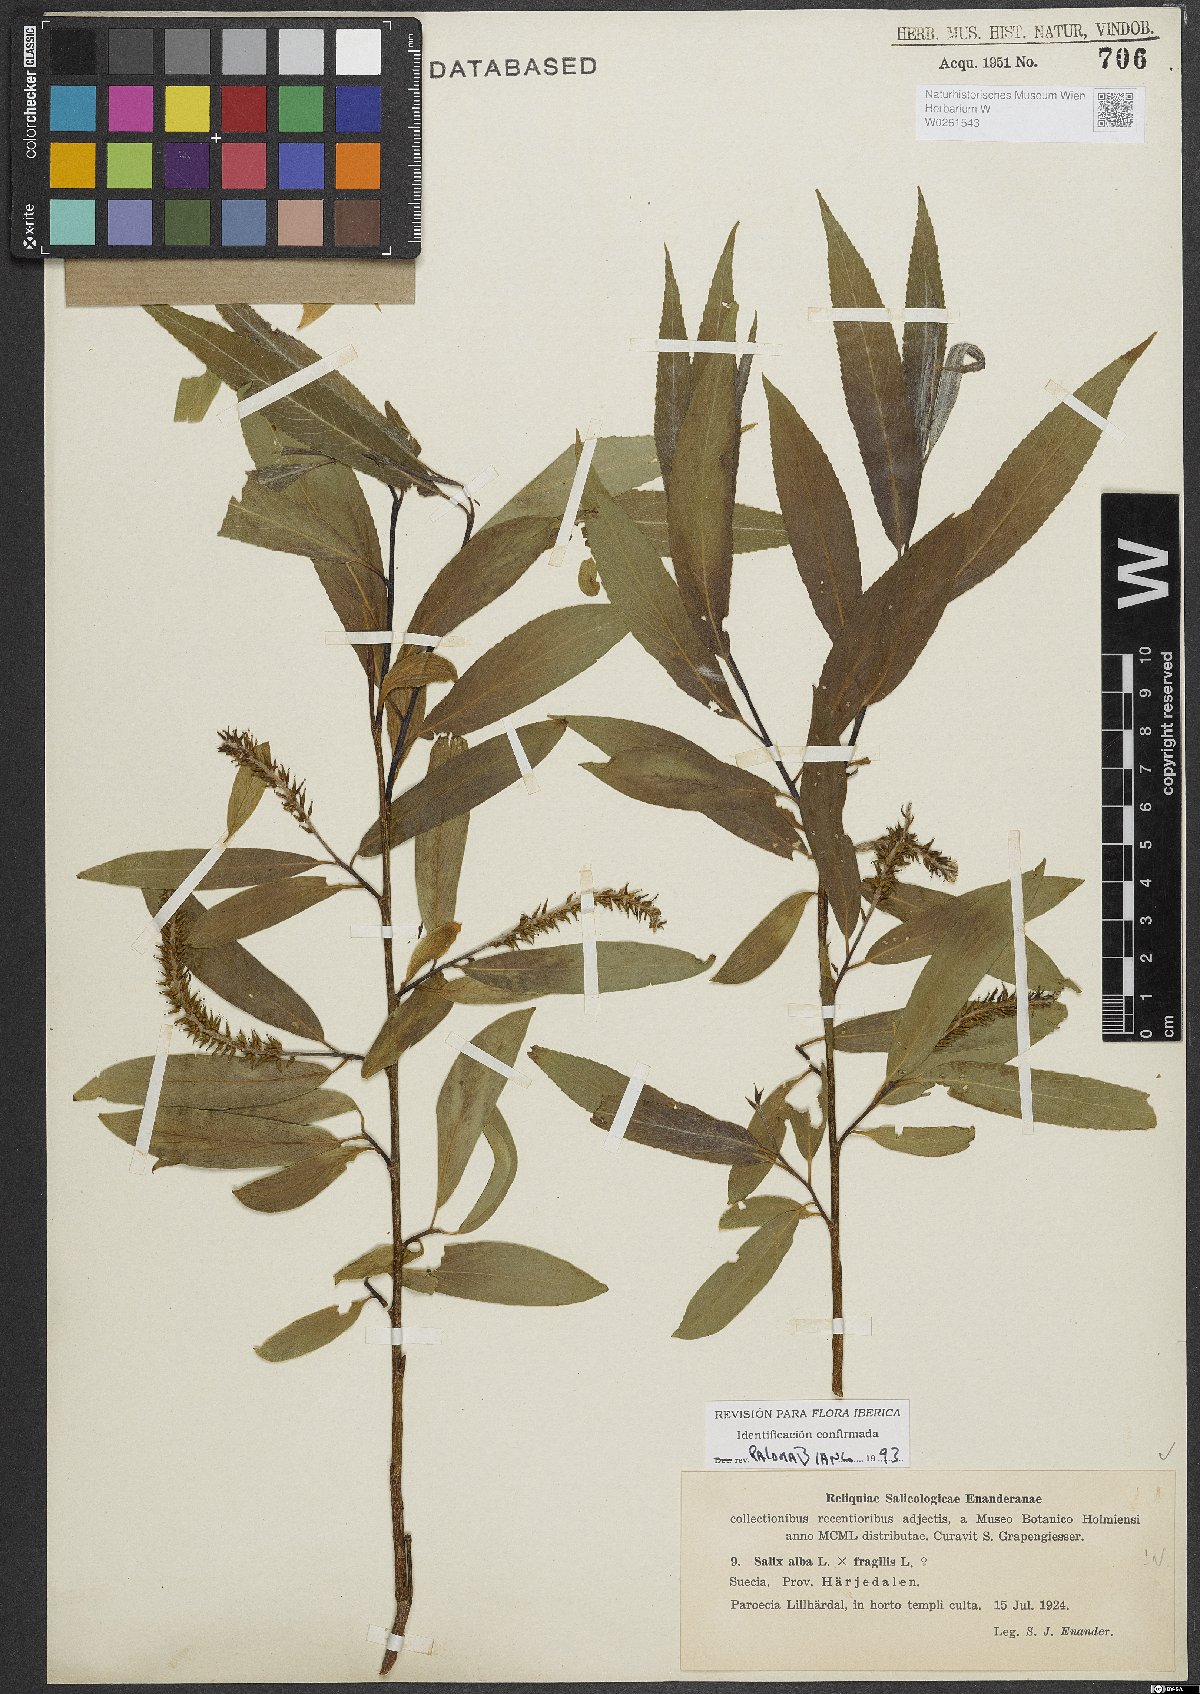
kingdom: Plantae
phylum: Tracheophyta
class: Magnoliopsida
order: Malpighiales
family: Salicaceae
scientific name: Salicaceae
